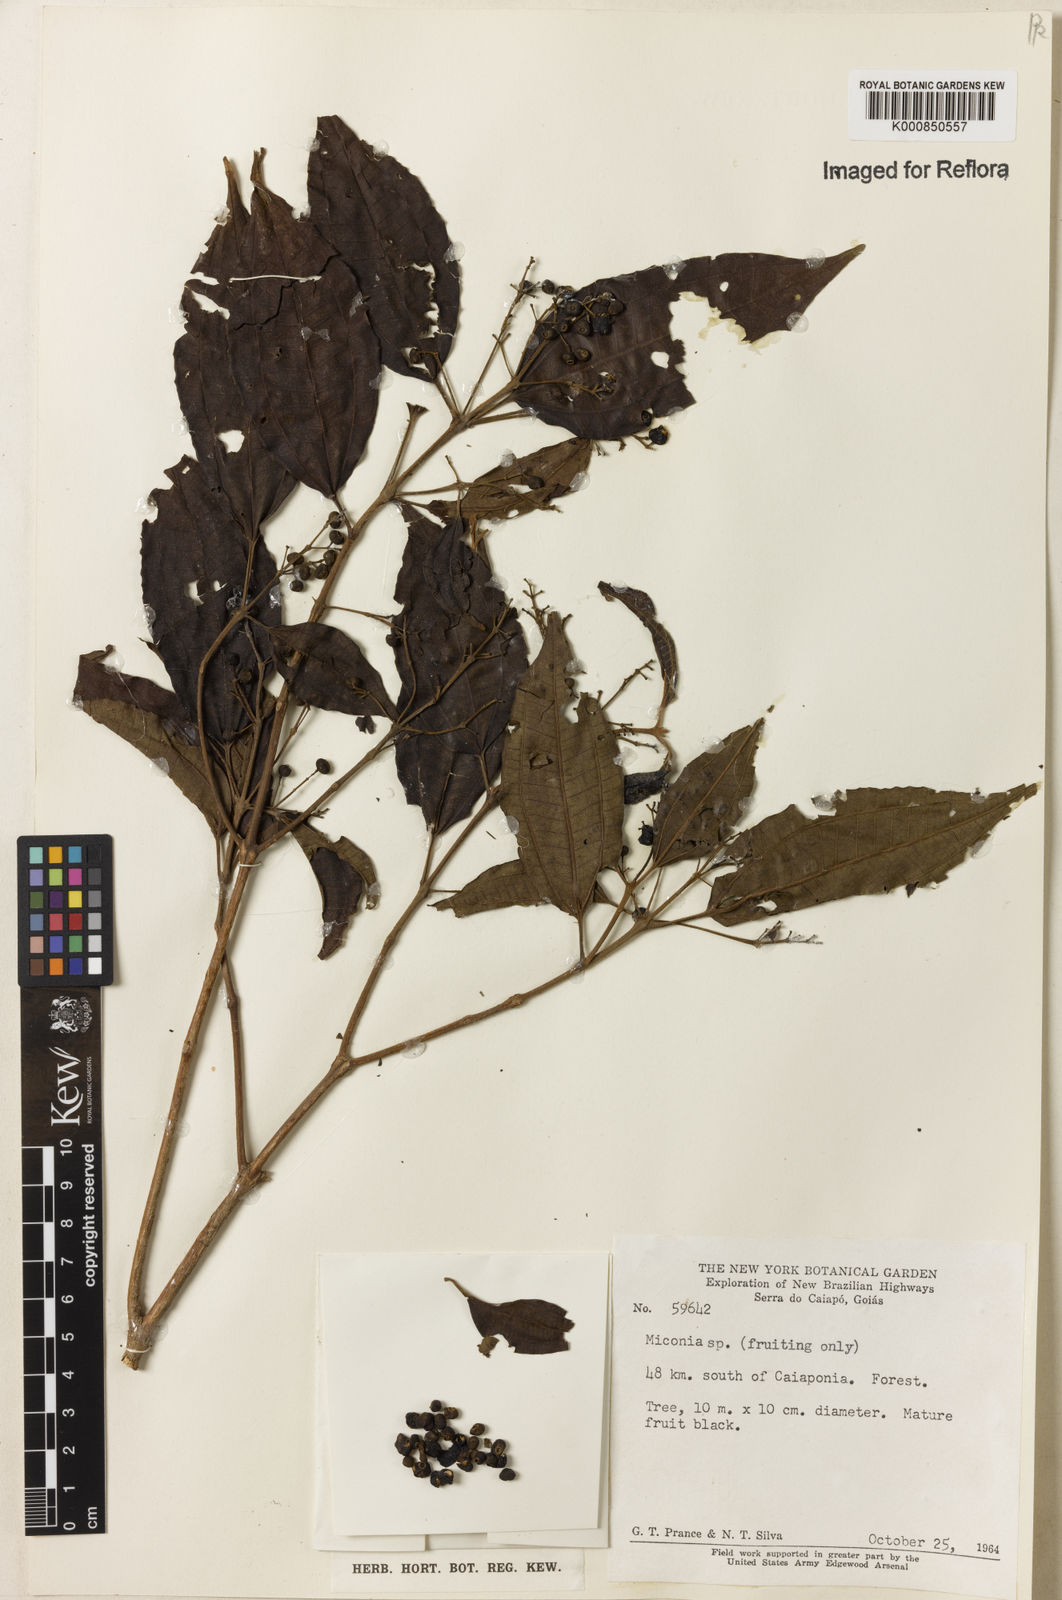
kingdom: Plantae
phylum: Tracheophyta
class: Magnoliopsida
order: Myrtales
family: Melastomataceae
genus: Miconia
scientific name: Miconia
